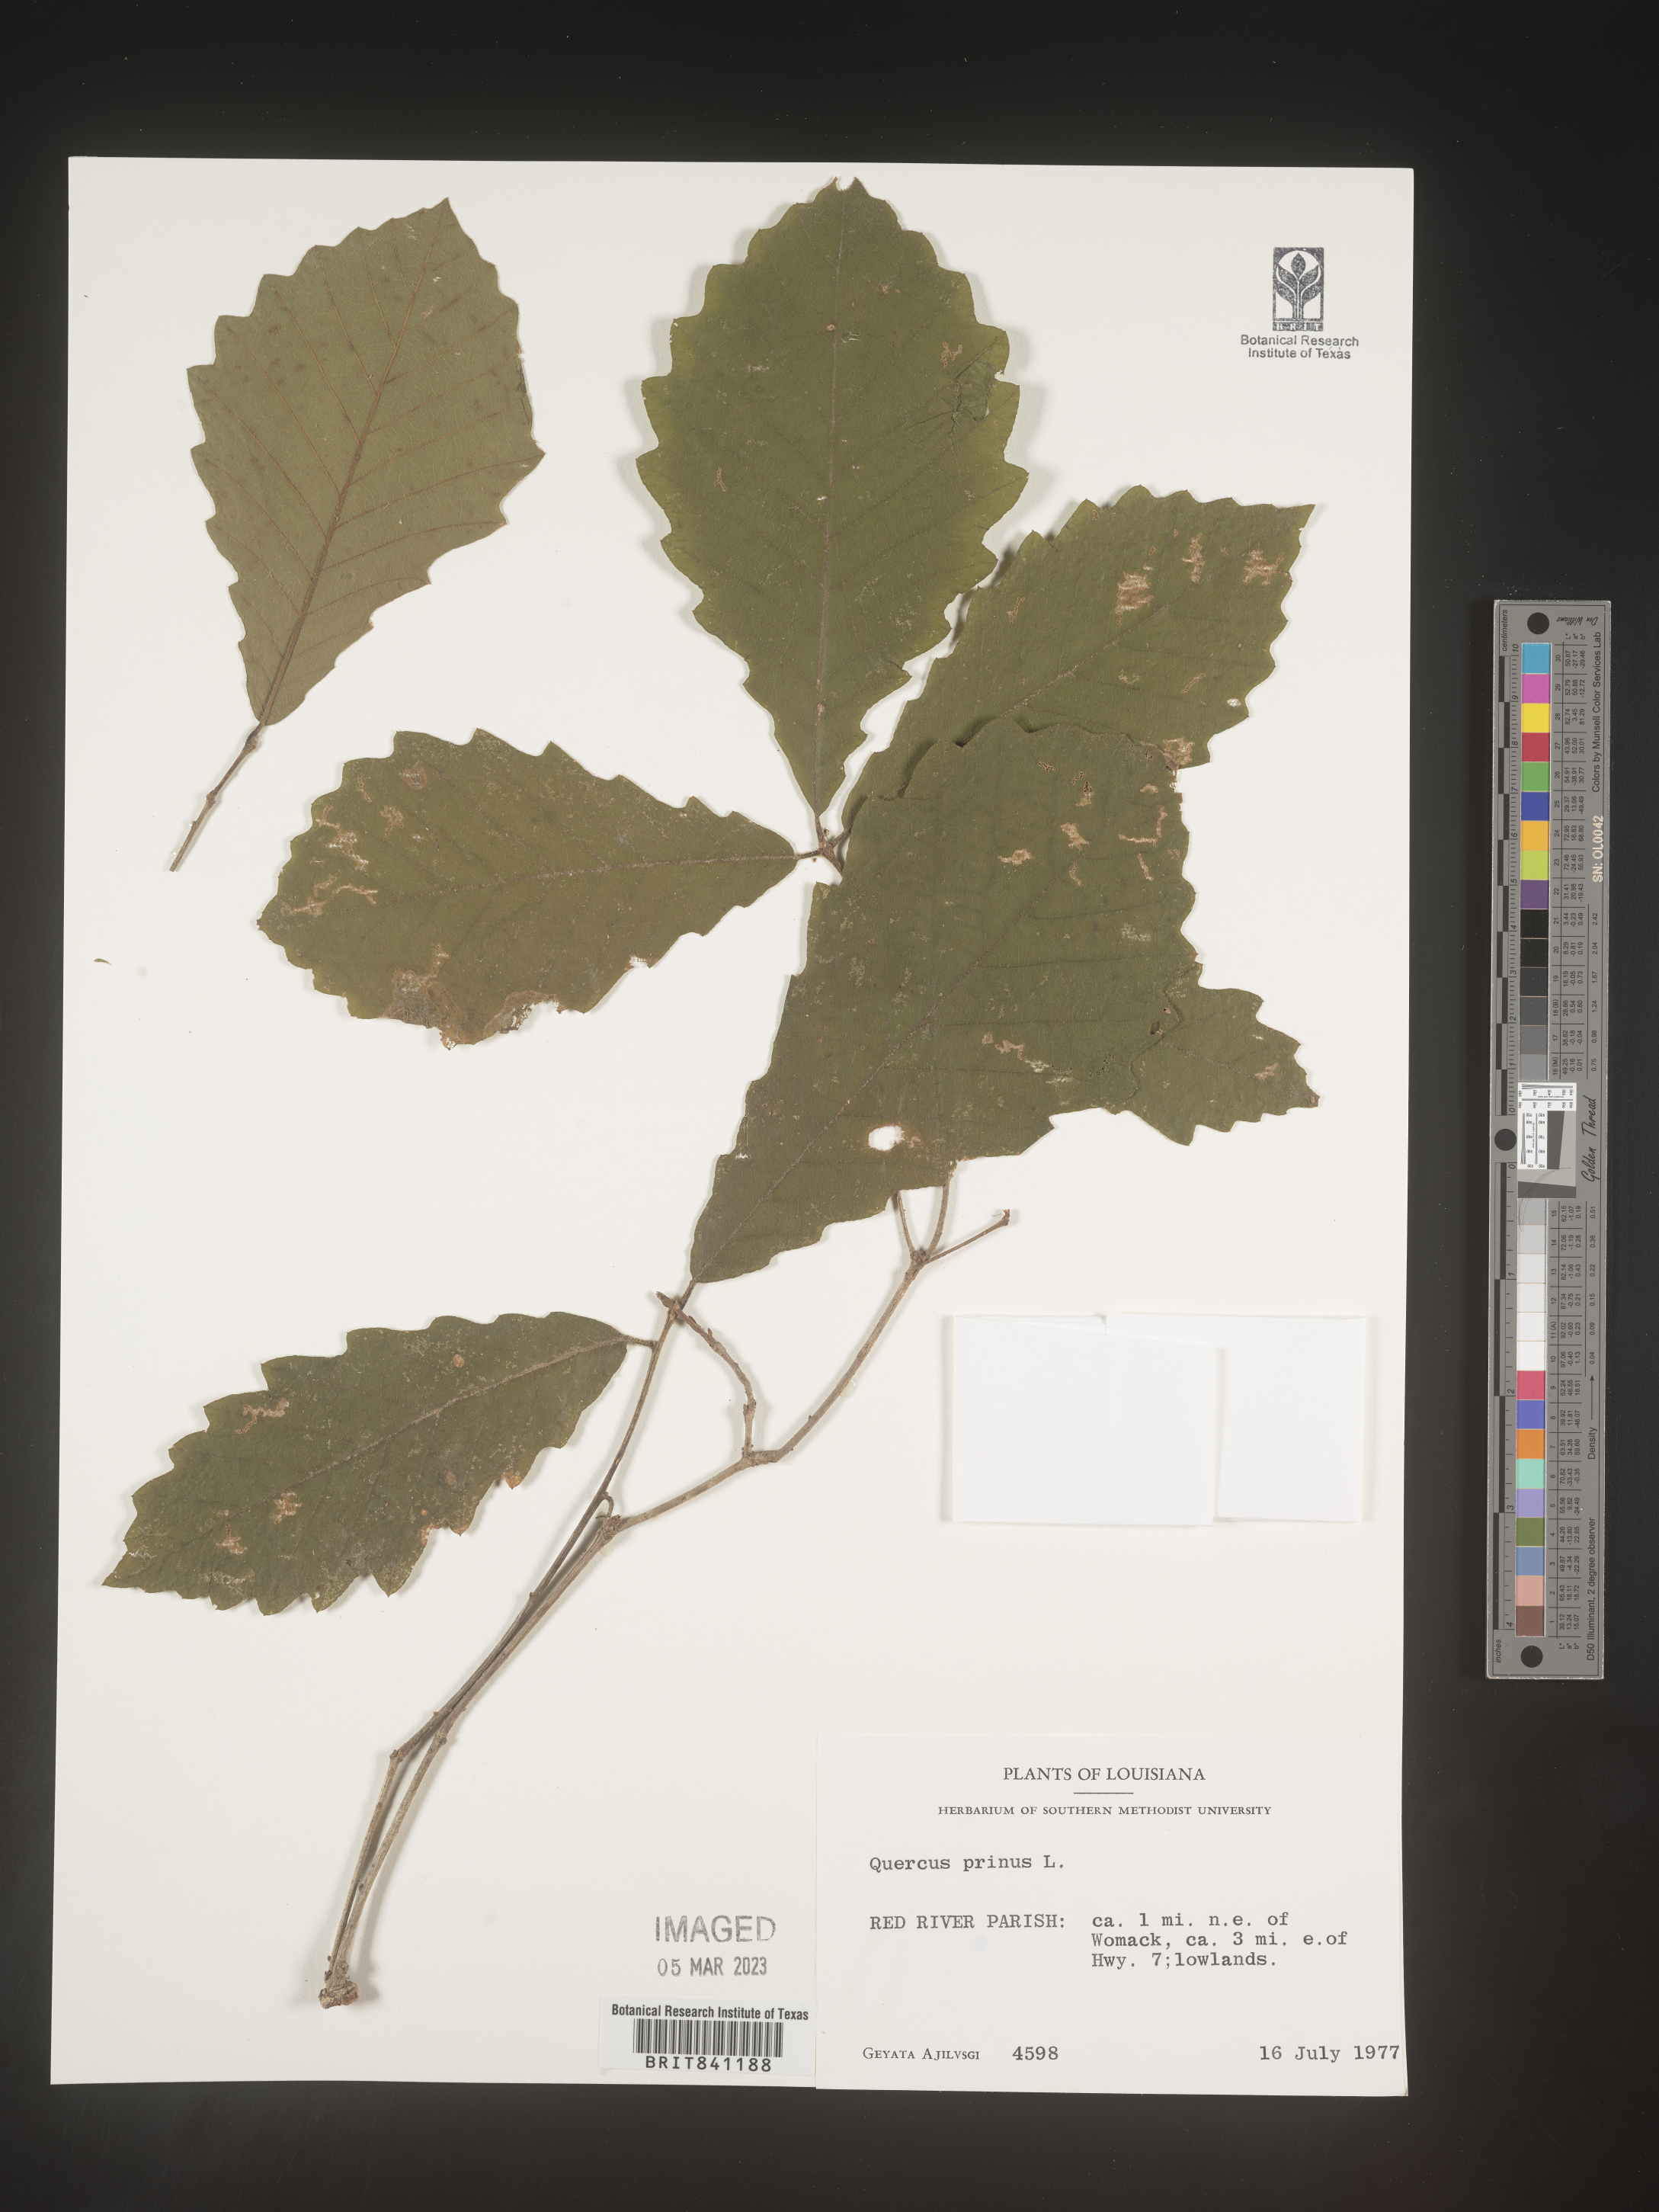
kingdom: Plantae
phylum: Tracheophyta
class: Magnoliopsida
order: Fagales
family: Fagaceae
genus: Quercus
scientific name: Quercus michauxii
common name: Swamp chestnut oak
